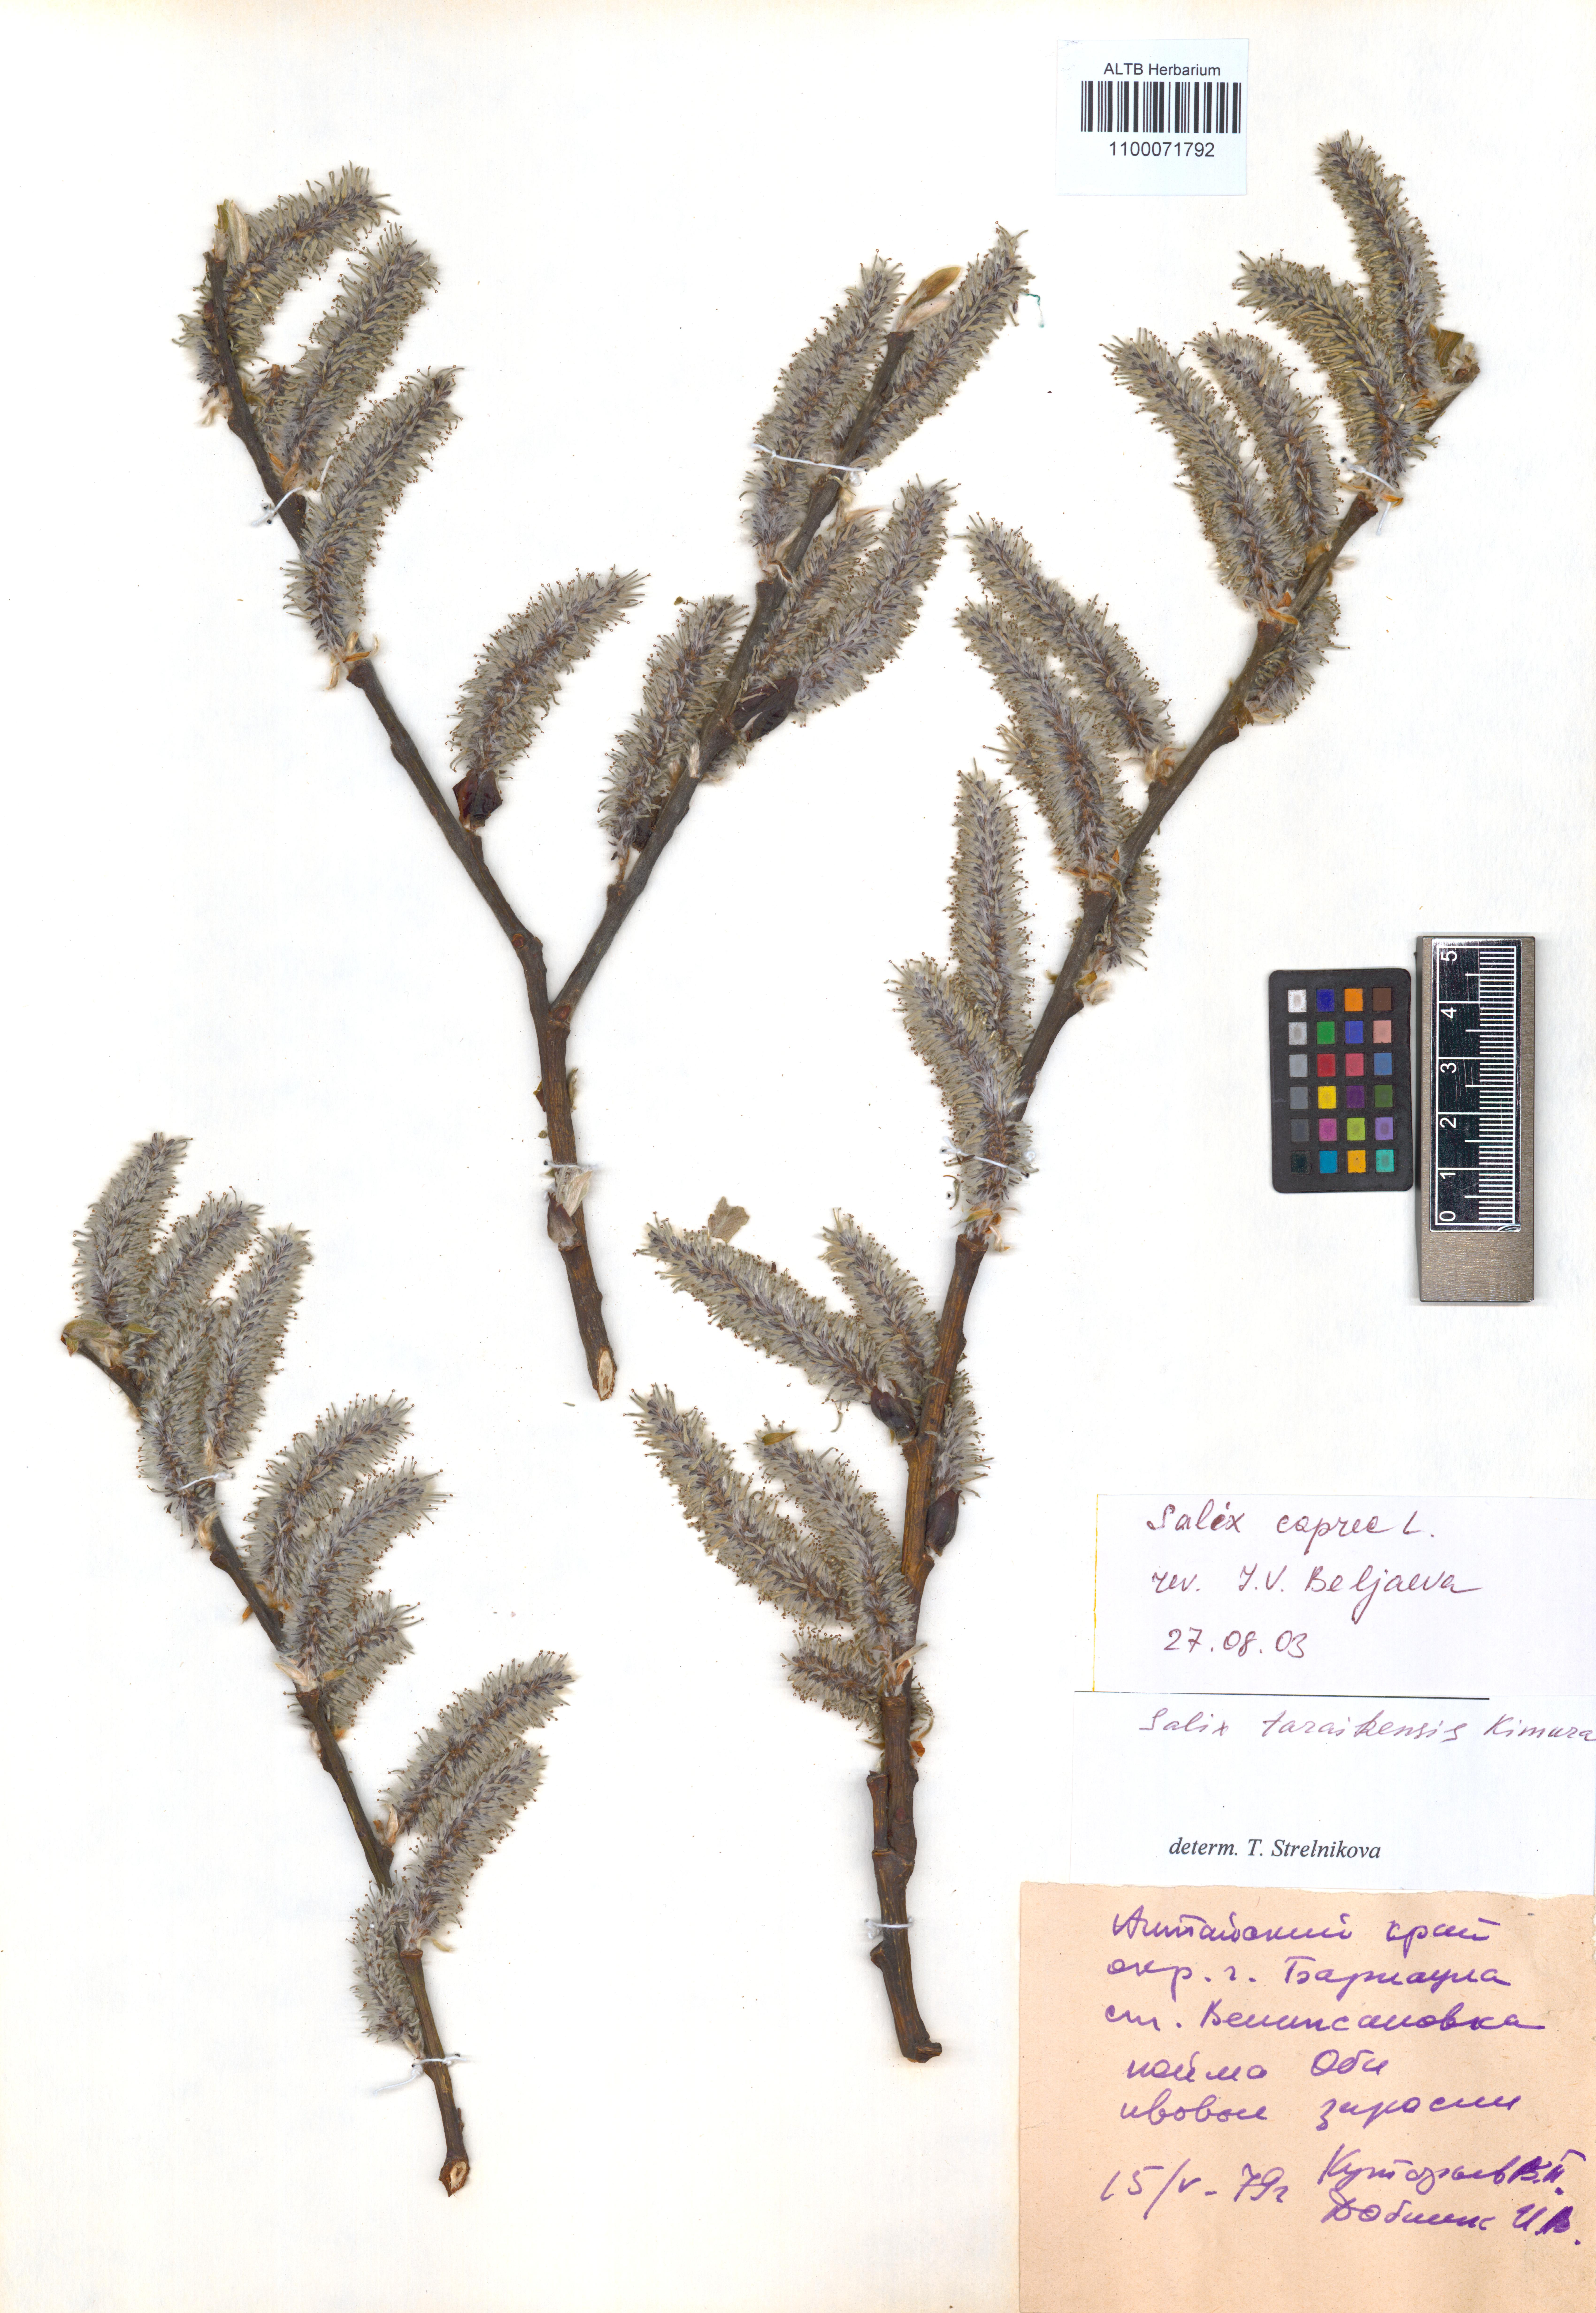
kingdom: Plantae
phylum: Tracheophyta
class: Magnoliopsida
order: Malpighiales
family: Salicaceae
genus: Salix
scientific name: Salix caprea
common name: Goat willow
